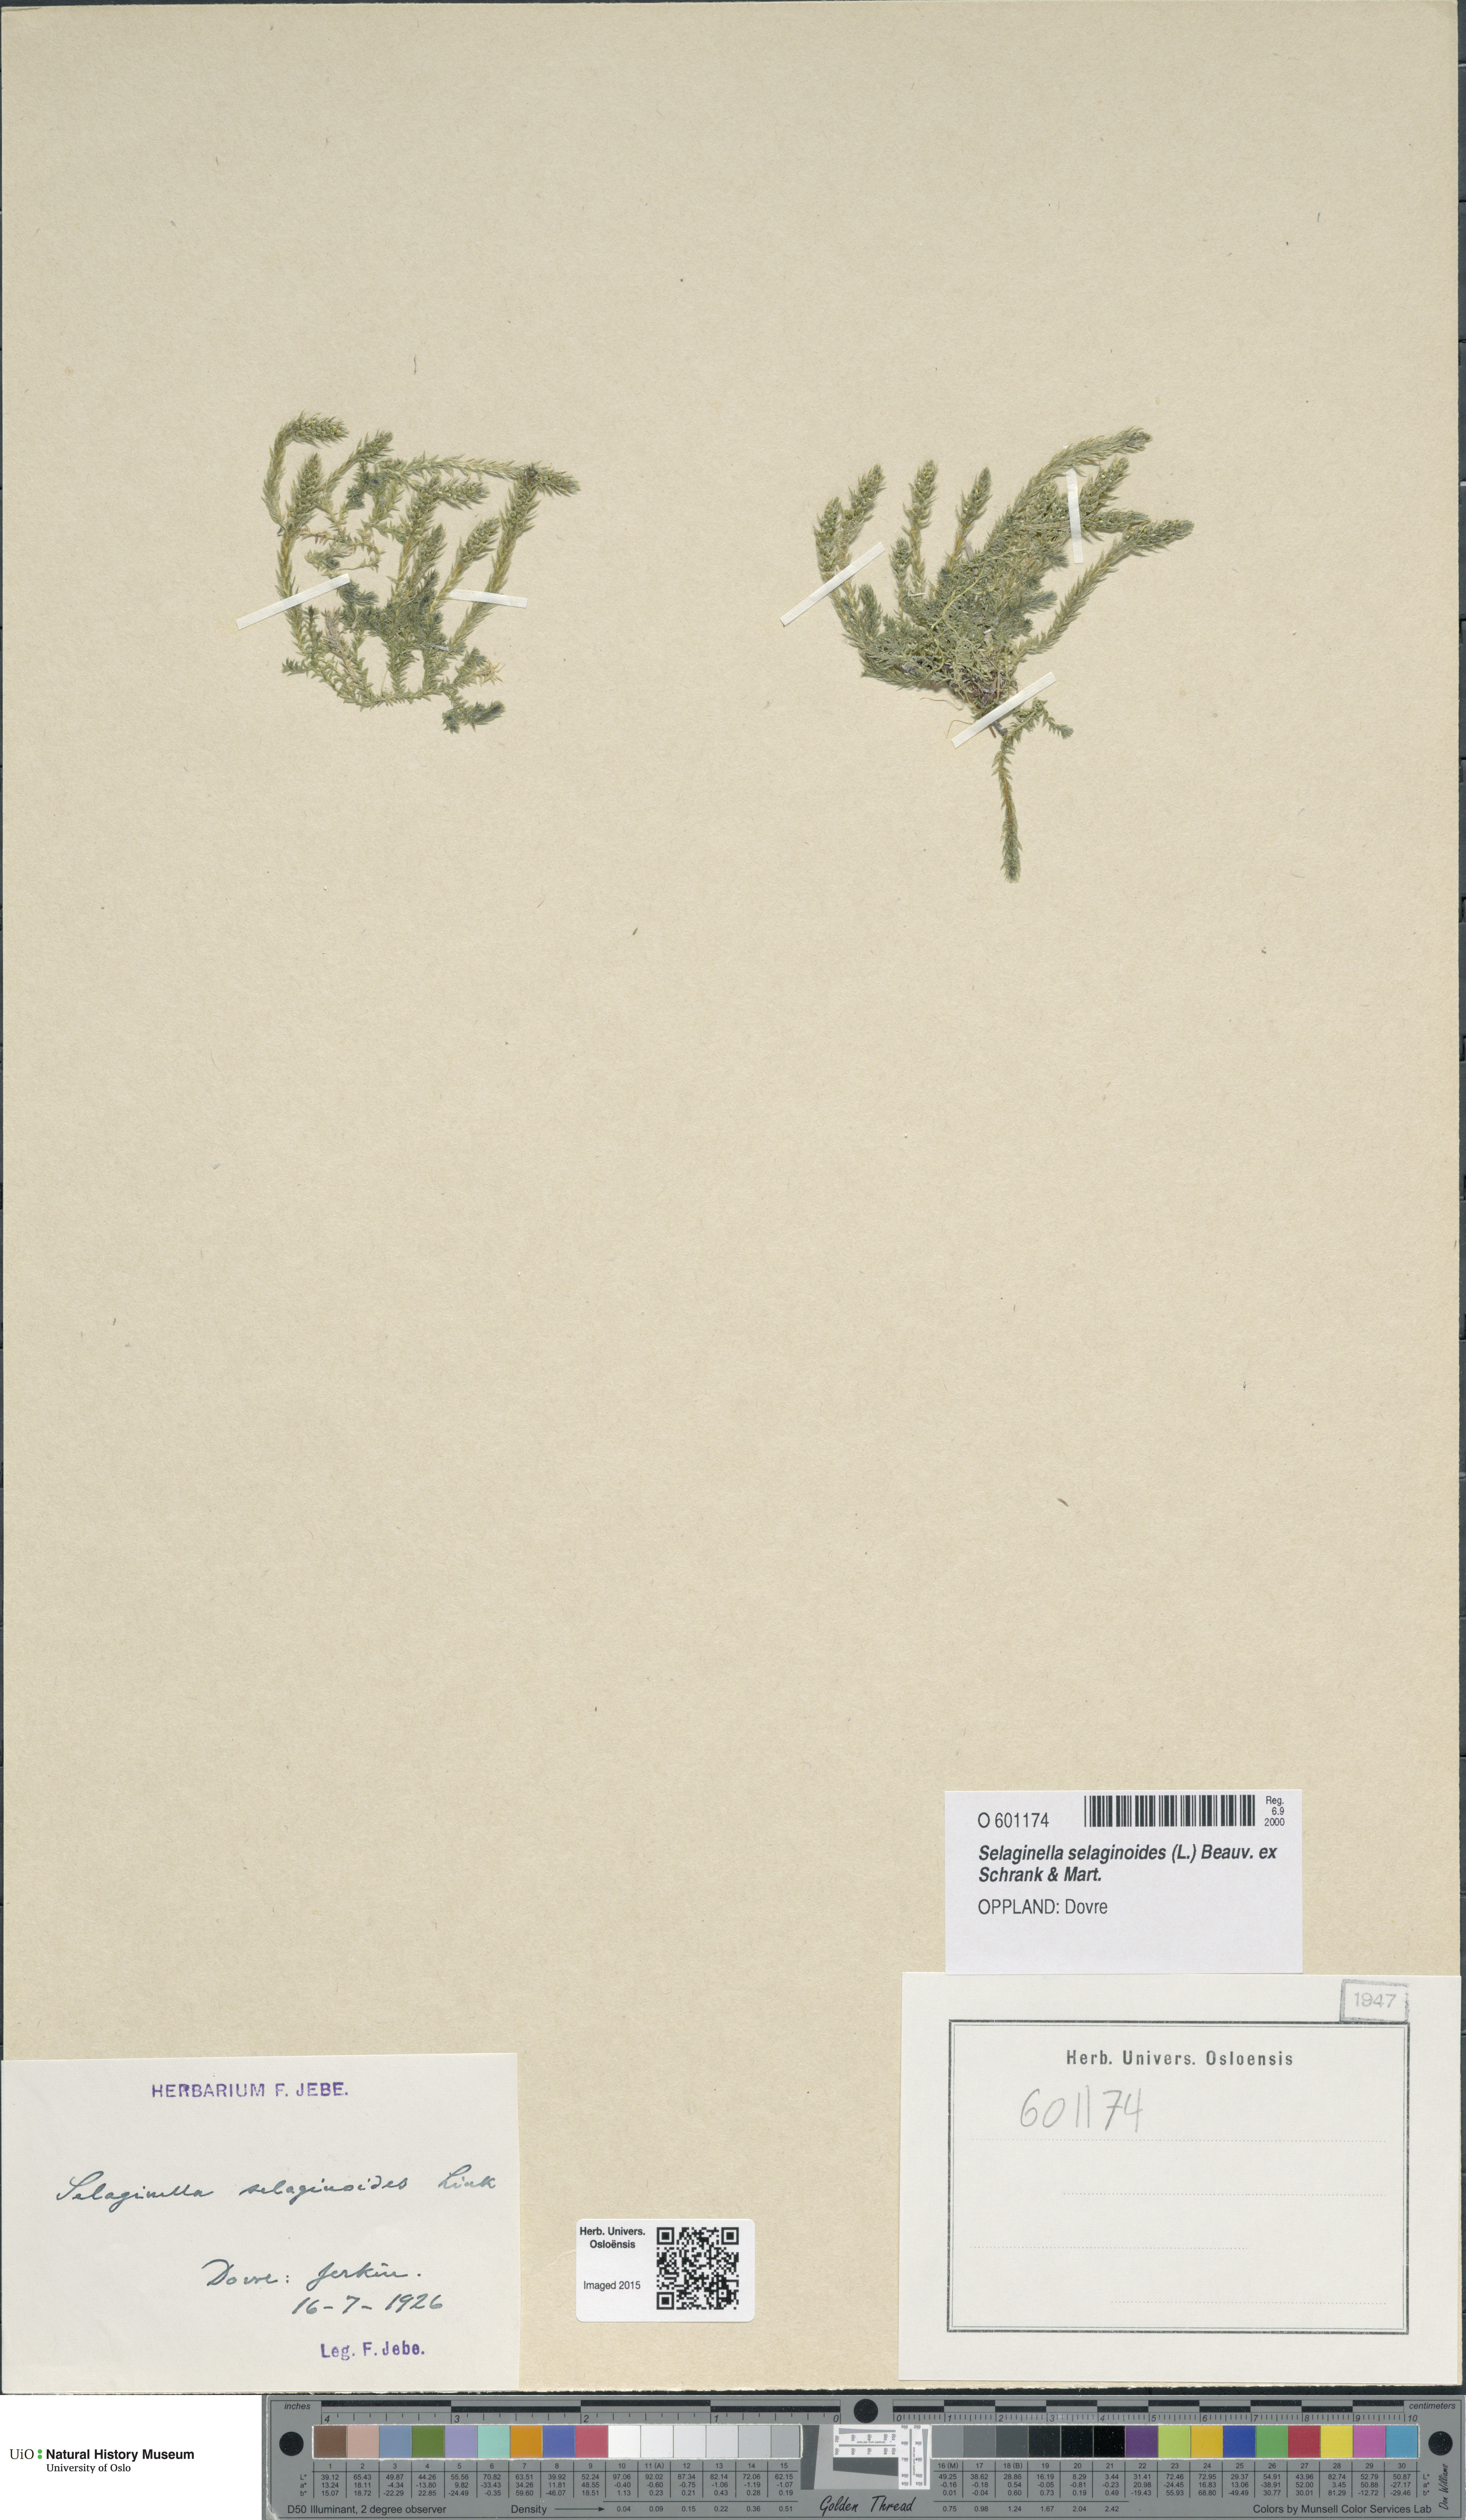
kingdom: Plantae
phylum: Tracheophyta
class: Lycopodiopsida
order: Selaginellales
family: Selaginellaceae
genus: Selaginella
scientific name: Selaginella selaginoides
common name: Prickly mountain-moss
